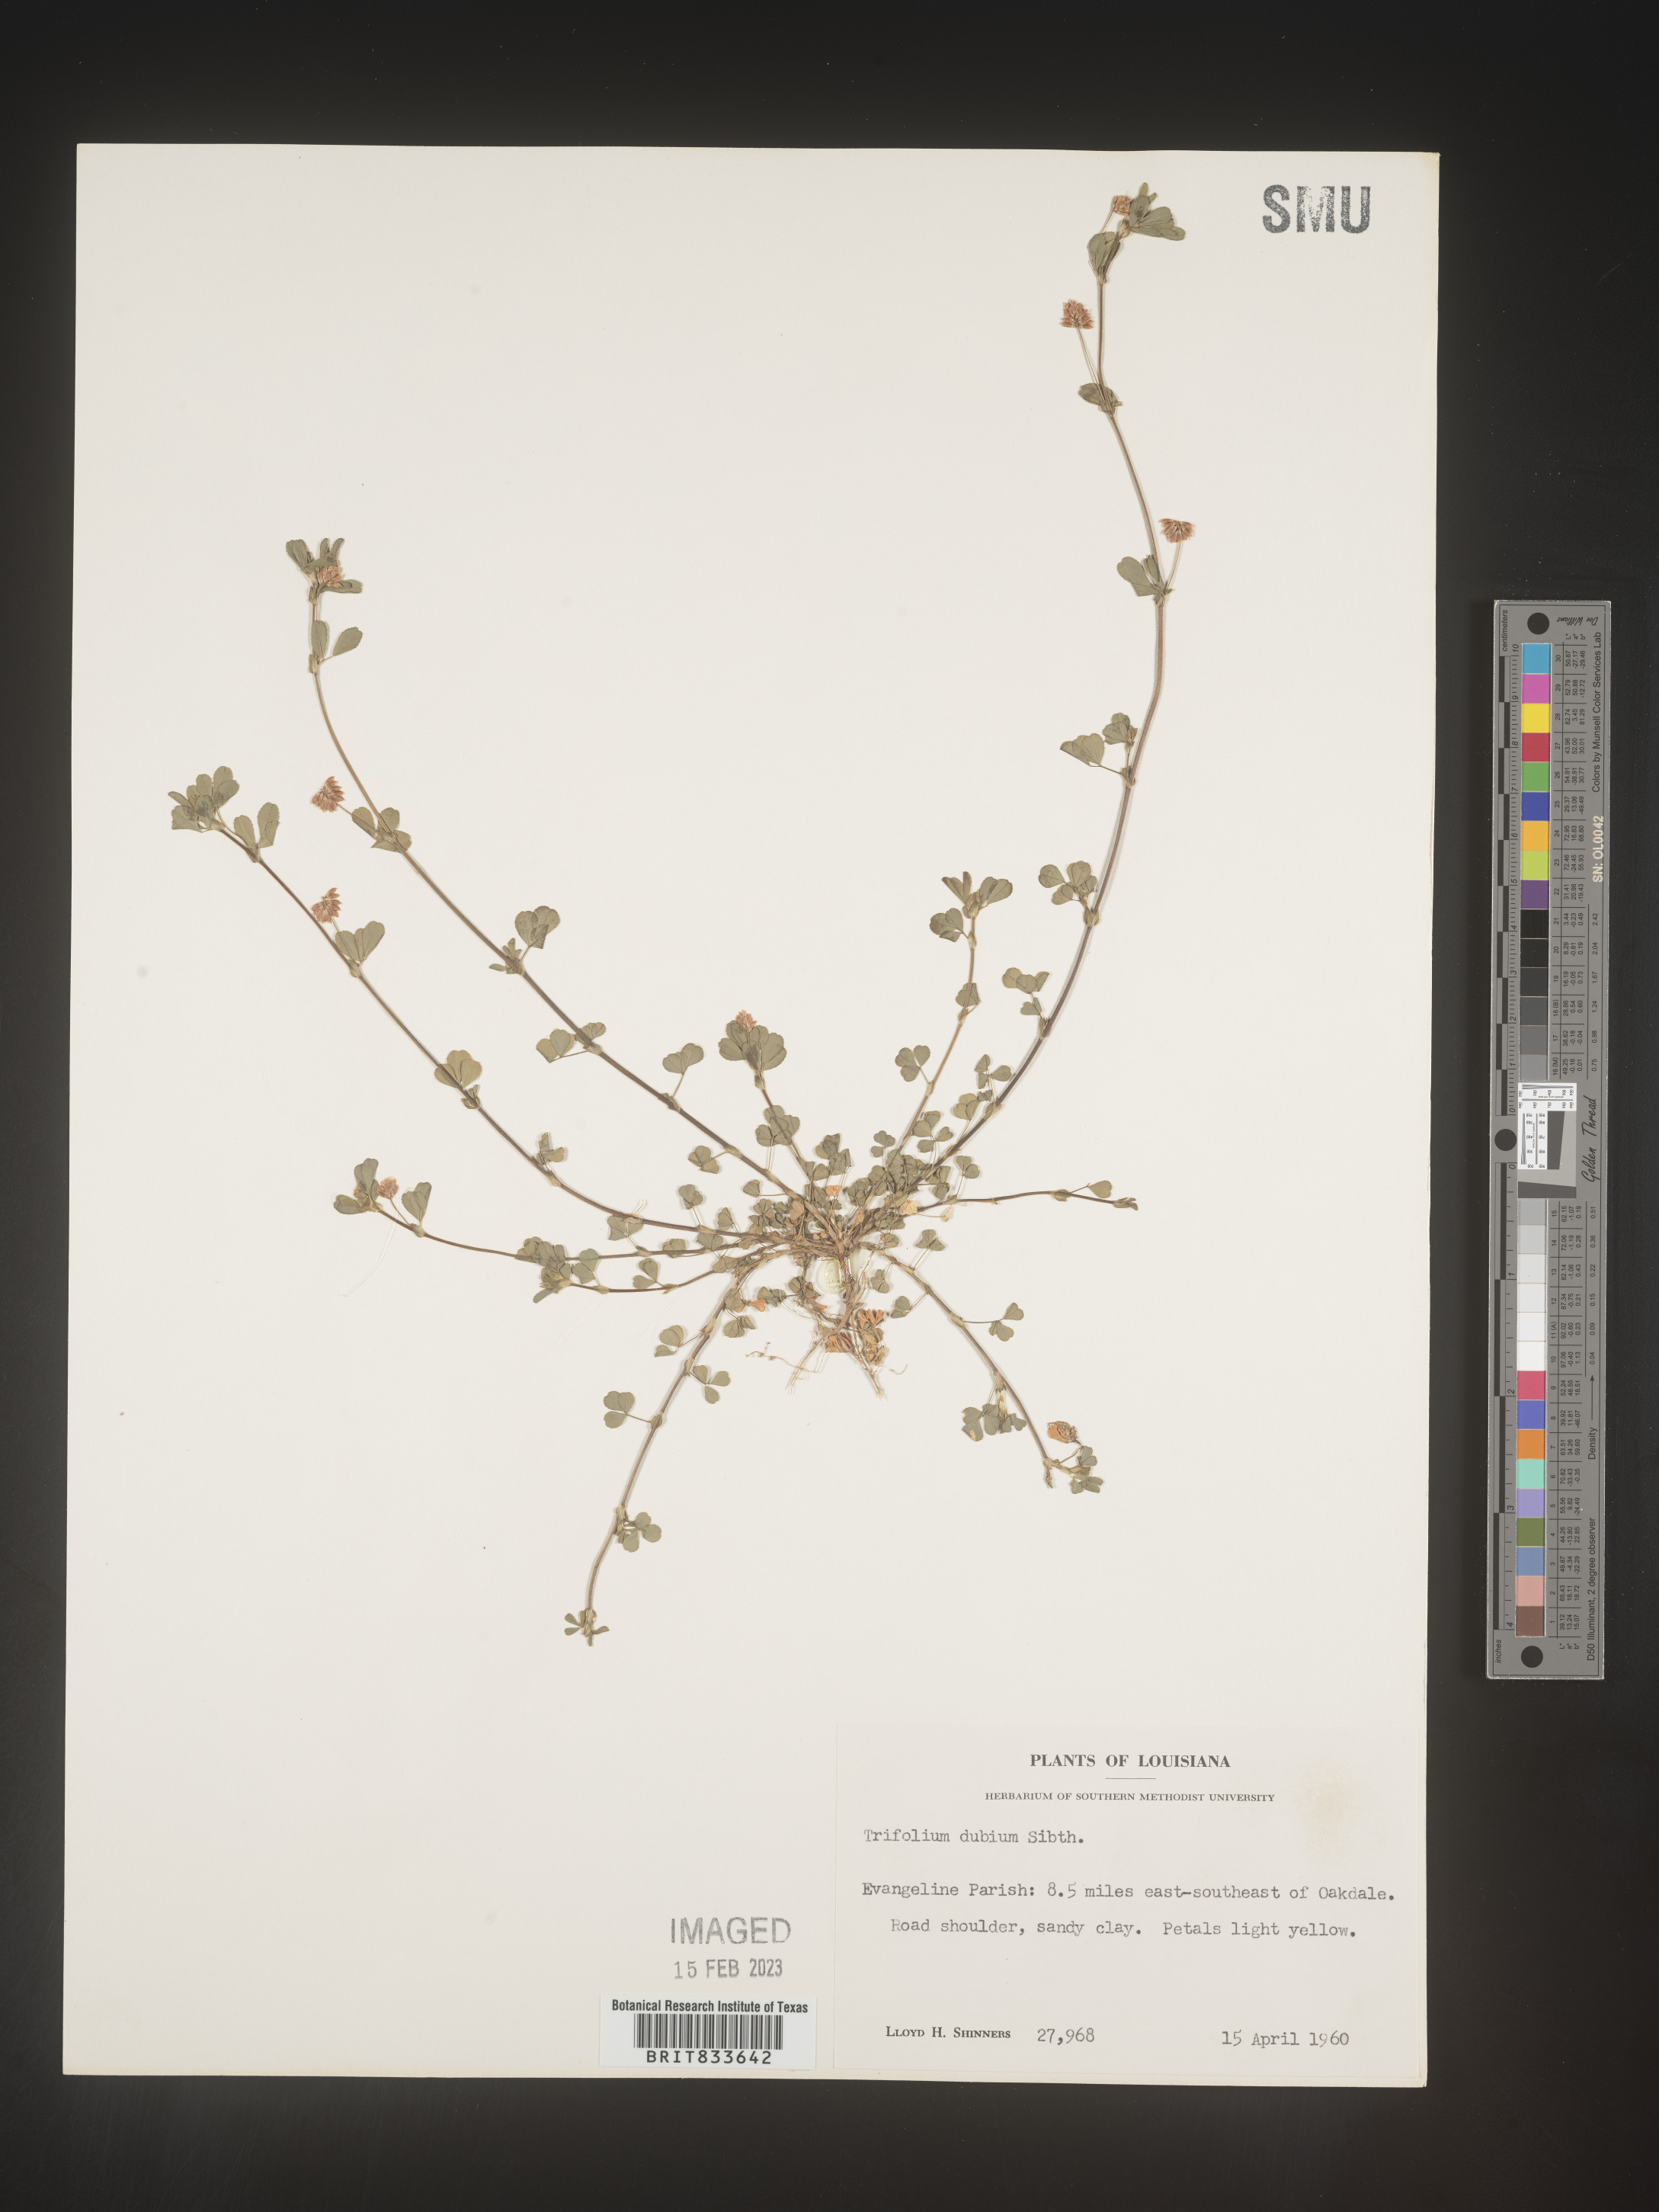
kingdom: Plantae
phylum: Tracheophyta
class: Magnoliopsida
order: Fabales
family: Fabaceae
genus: Trifolium
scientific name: Trifolium dubium
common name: Suckling clover
